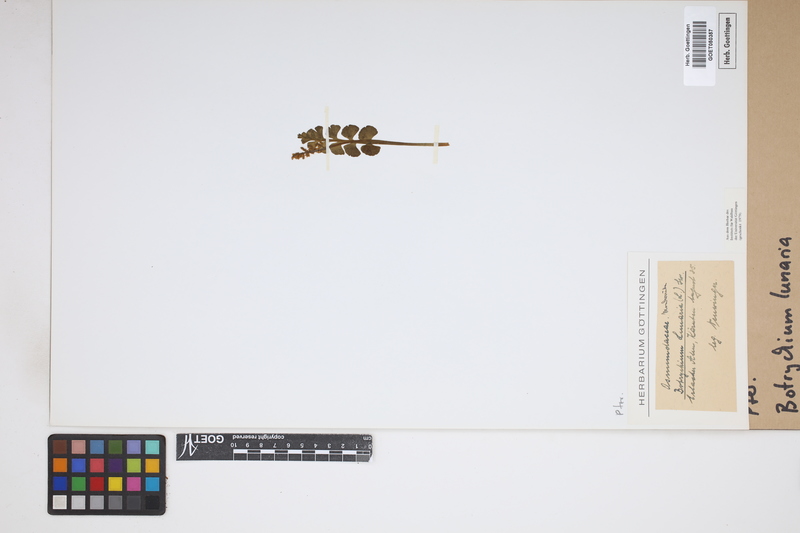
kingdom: Plantae
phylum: Tracheophyta
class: Polypodiopsida
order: Ophioglossales
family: Ophioglossaceae
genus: Botrychium
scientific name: Botrychium lunaria
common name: Moonwort
